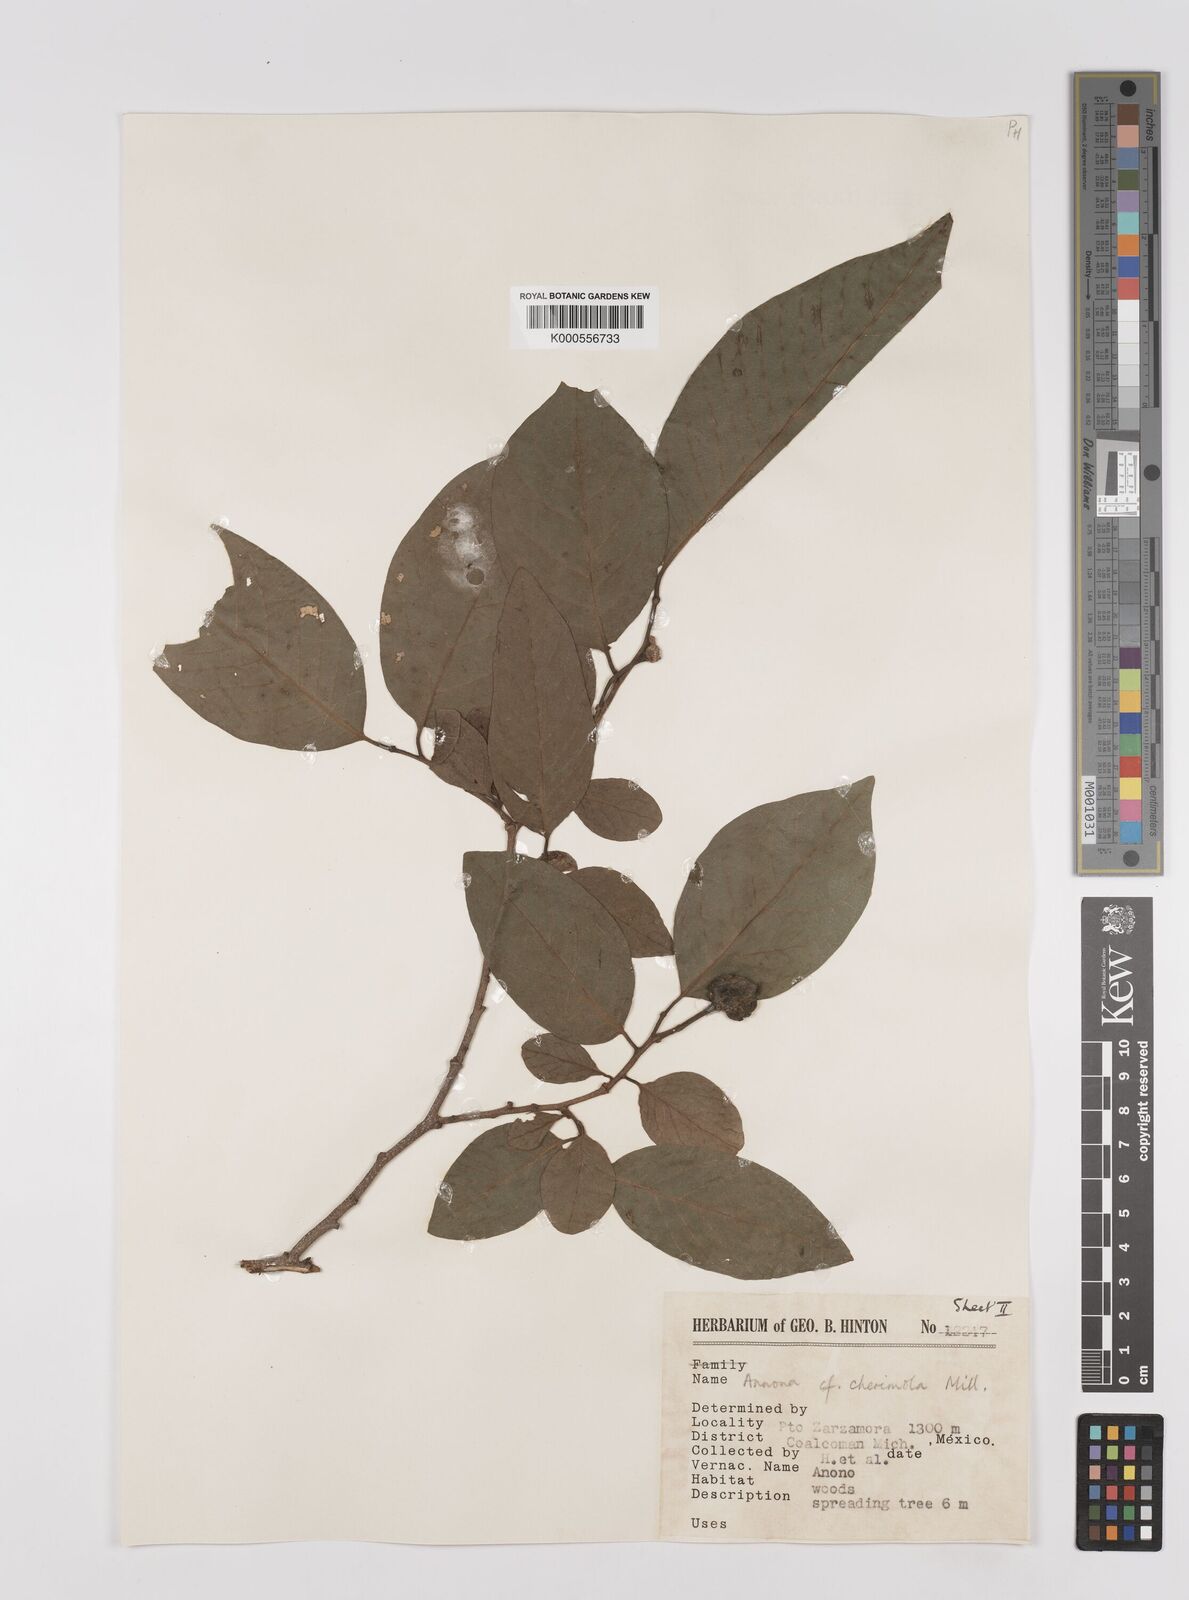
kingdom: Plantae
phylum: Tracheophyta
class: Magnoliopsida
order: Magnoliales
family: Annonaceae
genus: Annona
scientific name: Annona cherimola
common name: Cherimoya
